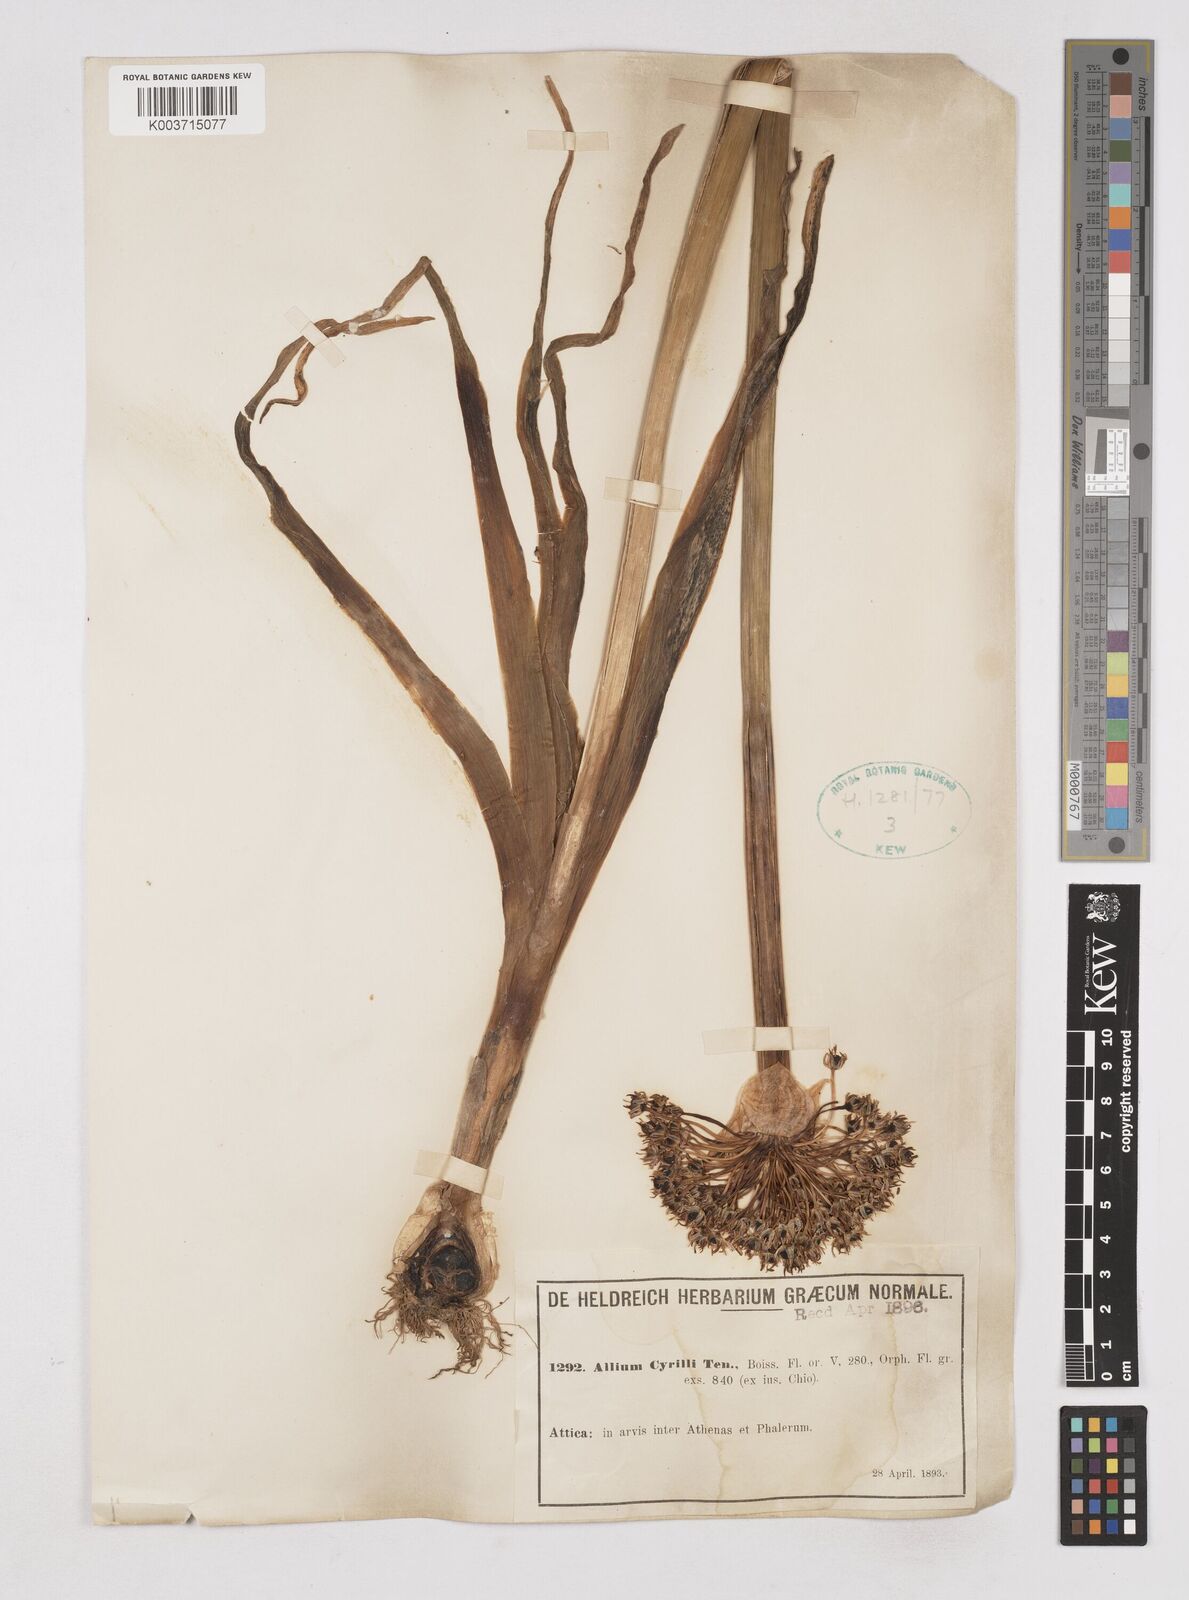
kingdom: Plantae
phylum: Tracheophyta
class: Liliopsida
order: Asparagales
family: Amaryllidaceae
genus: Allium
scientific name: Allium cyrilli
